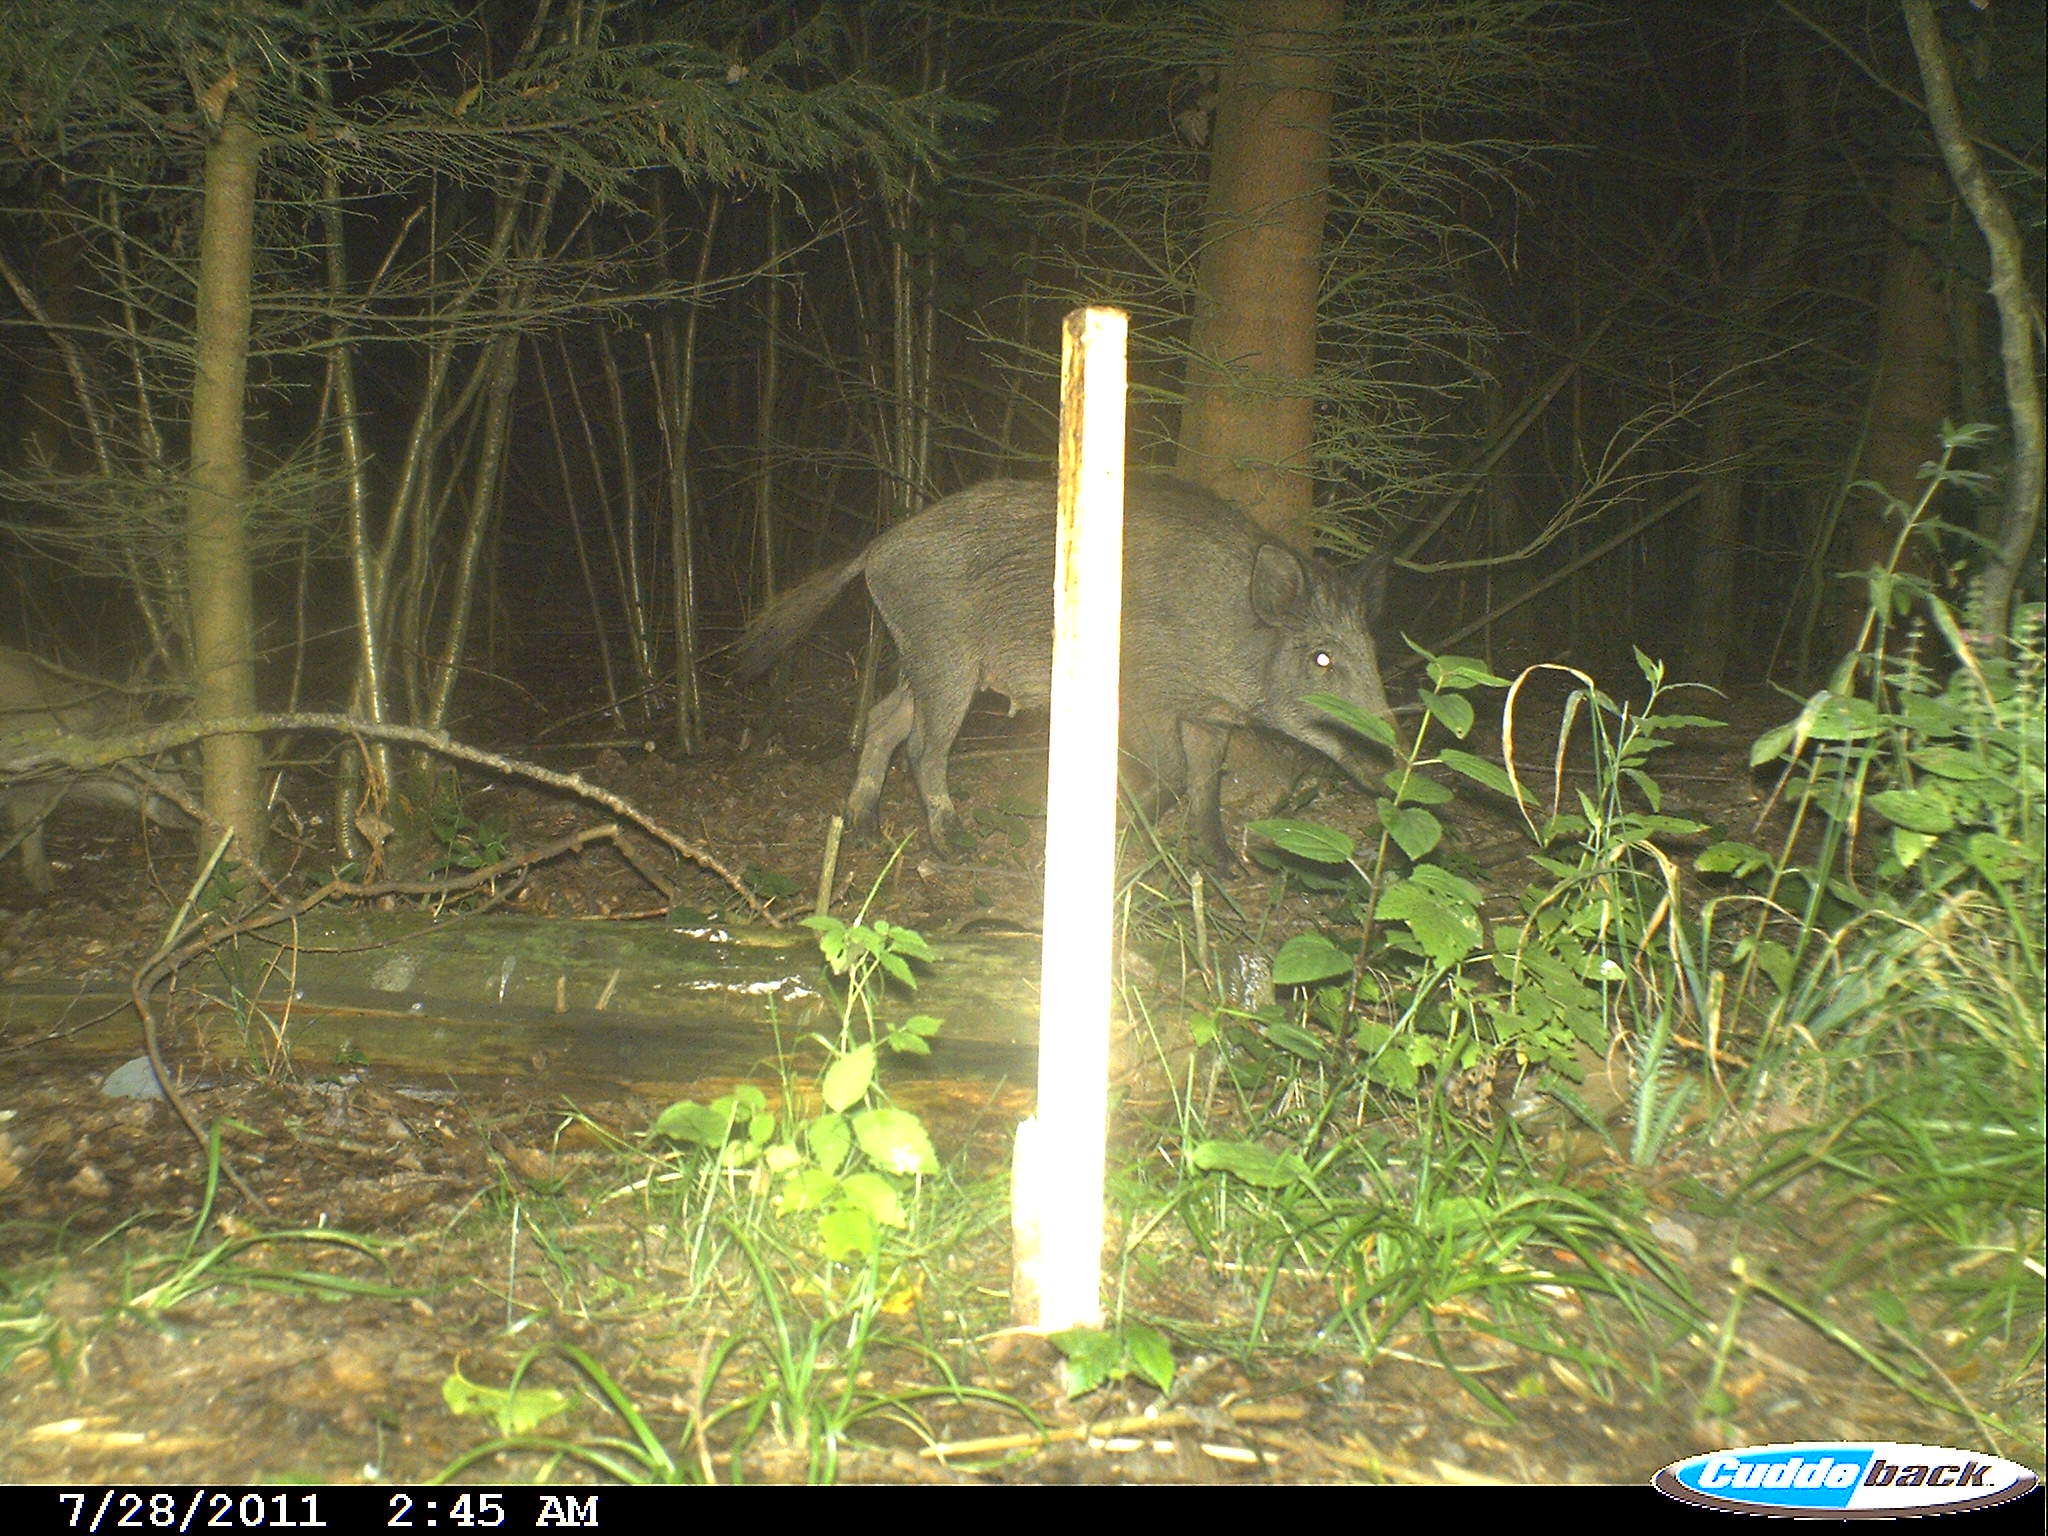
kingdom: Animalia
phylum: Chordata
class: Mammalia
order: Artiodactyla
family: Suidae
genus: Sus
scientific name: Sus scrofa
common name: Wild boar
